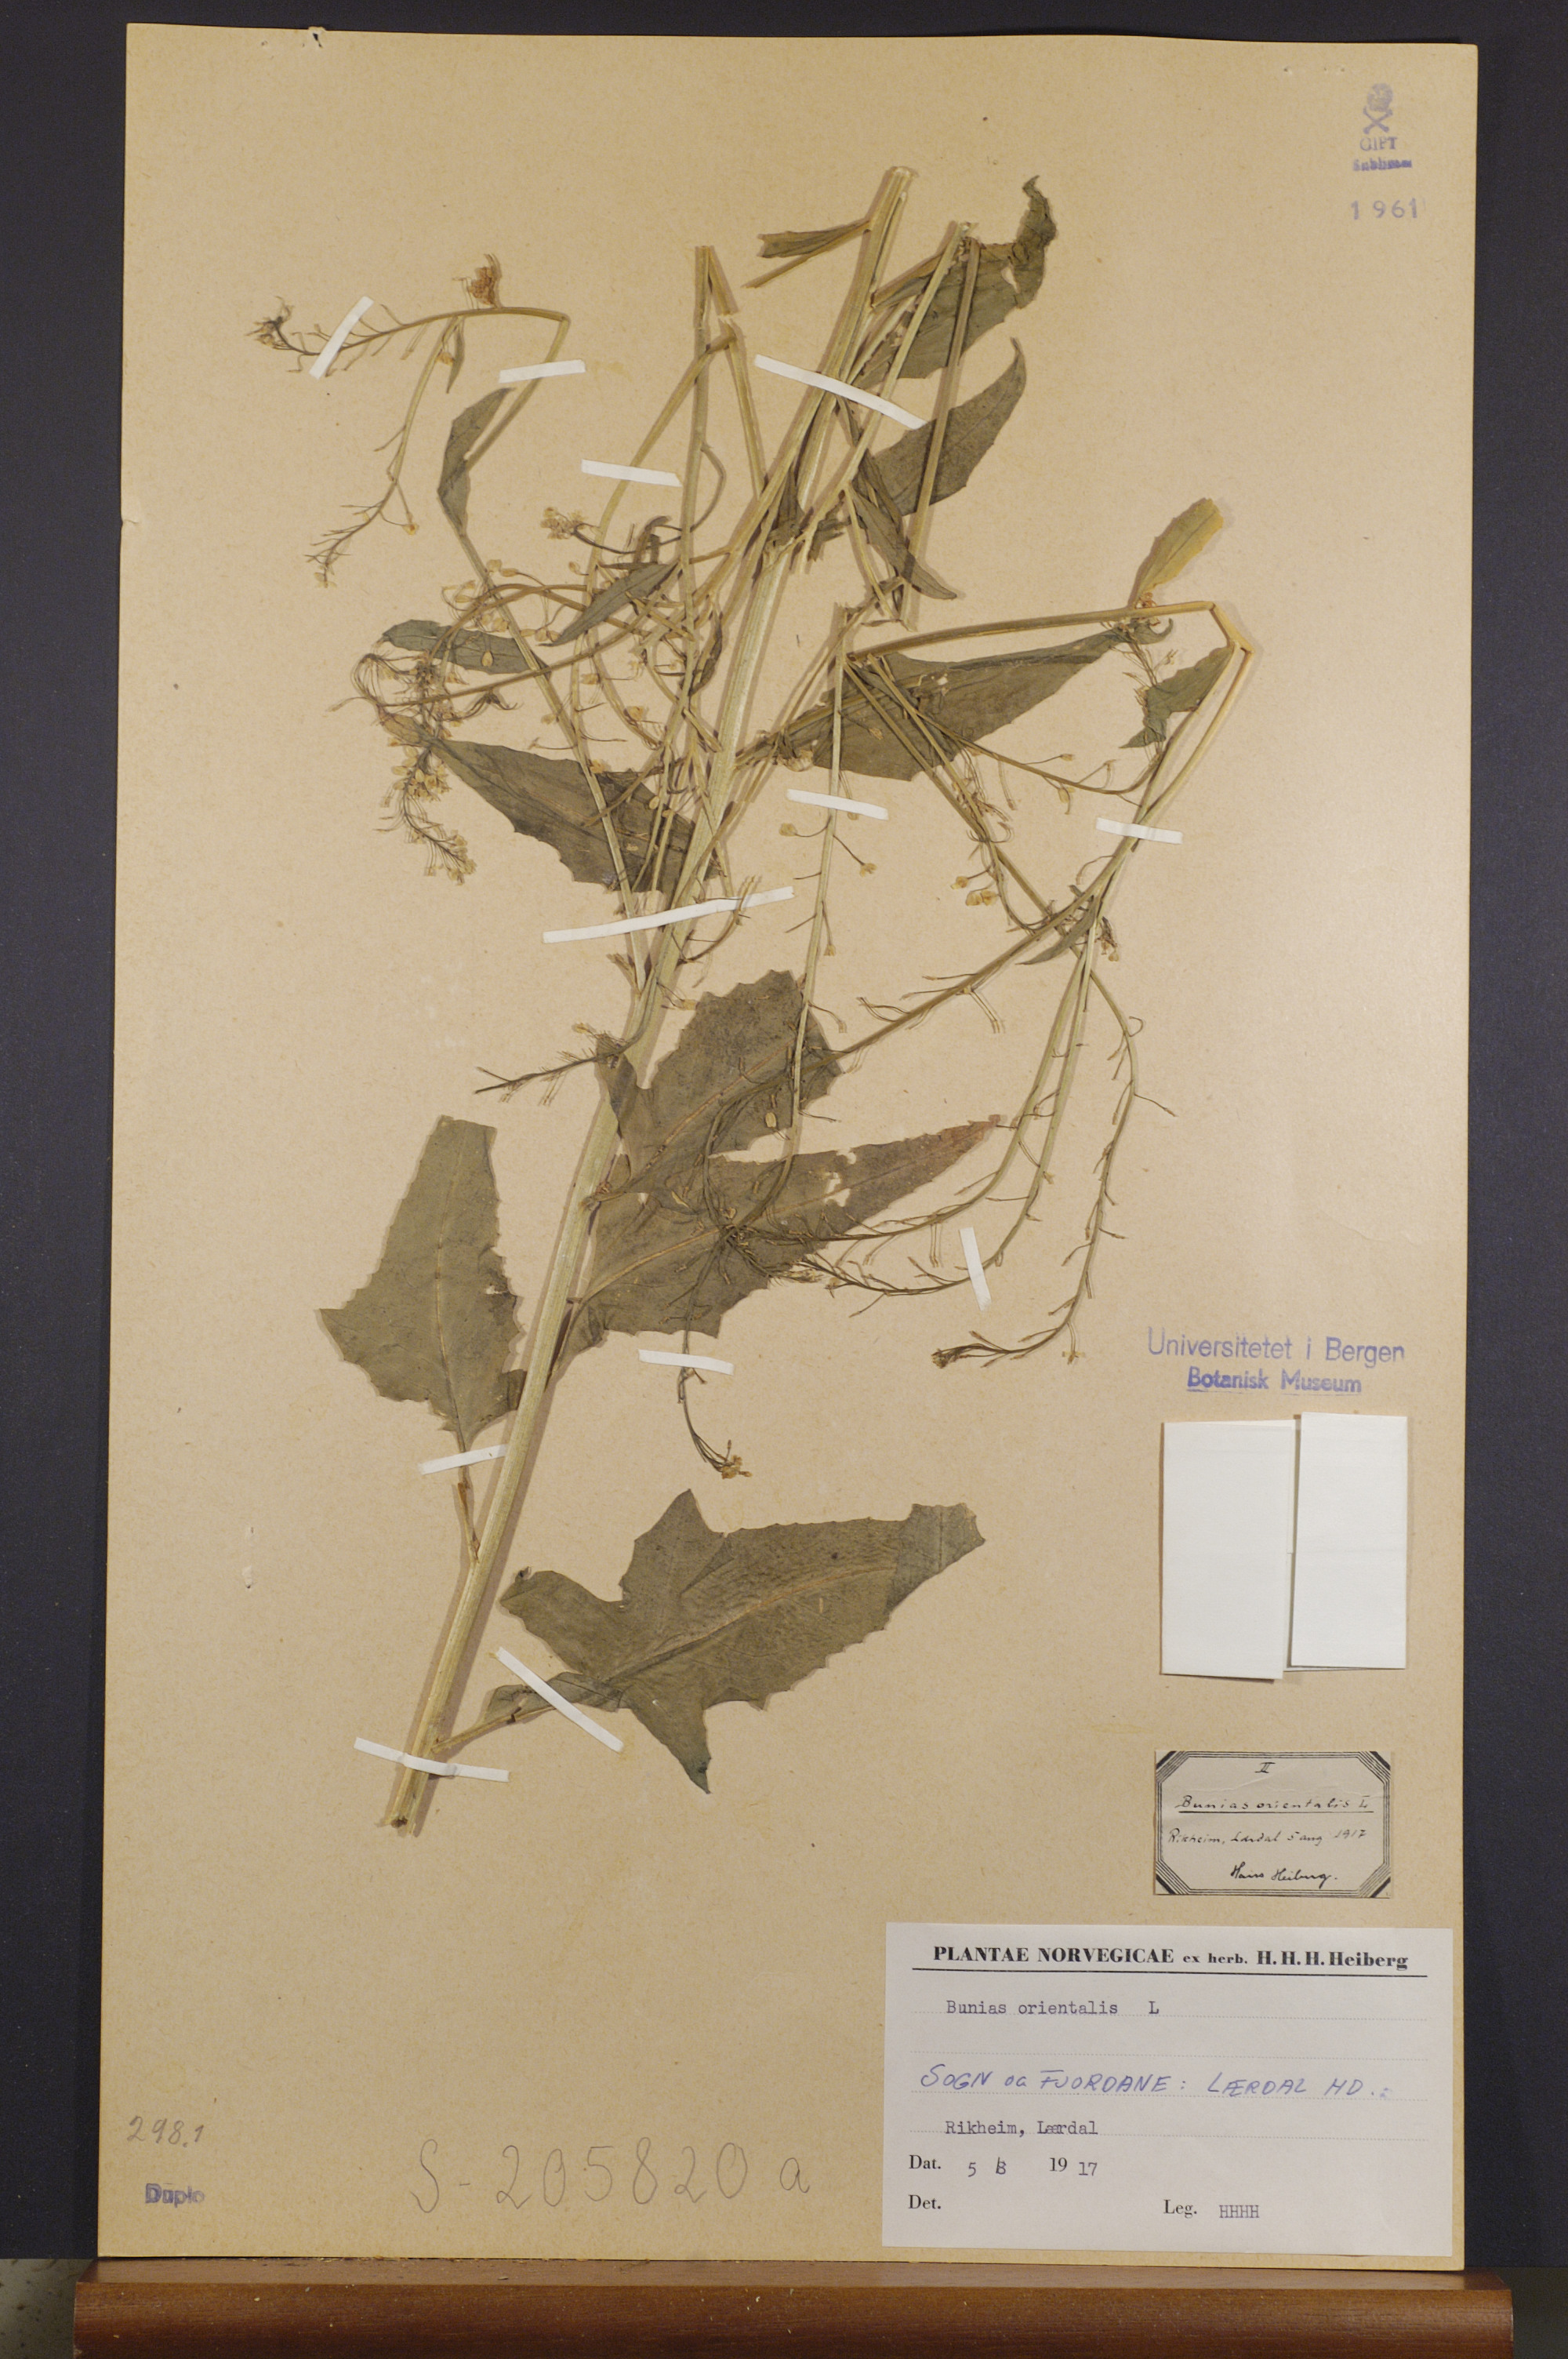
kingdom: Plantae
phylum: Tracheophyta
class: Magnoliopsida
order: Brassicales
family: Brassicaceae
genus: Bunias
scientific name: Bunias orientalis
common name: Warty-cabbage
